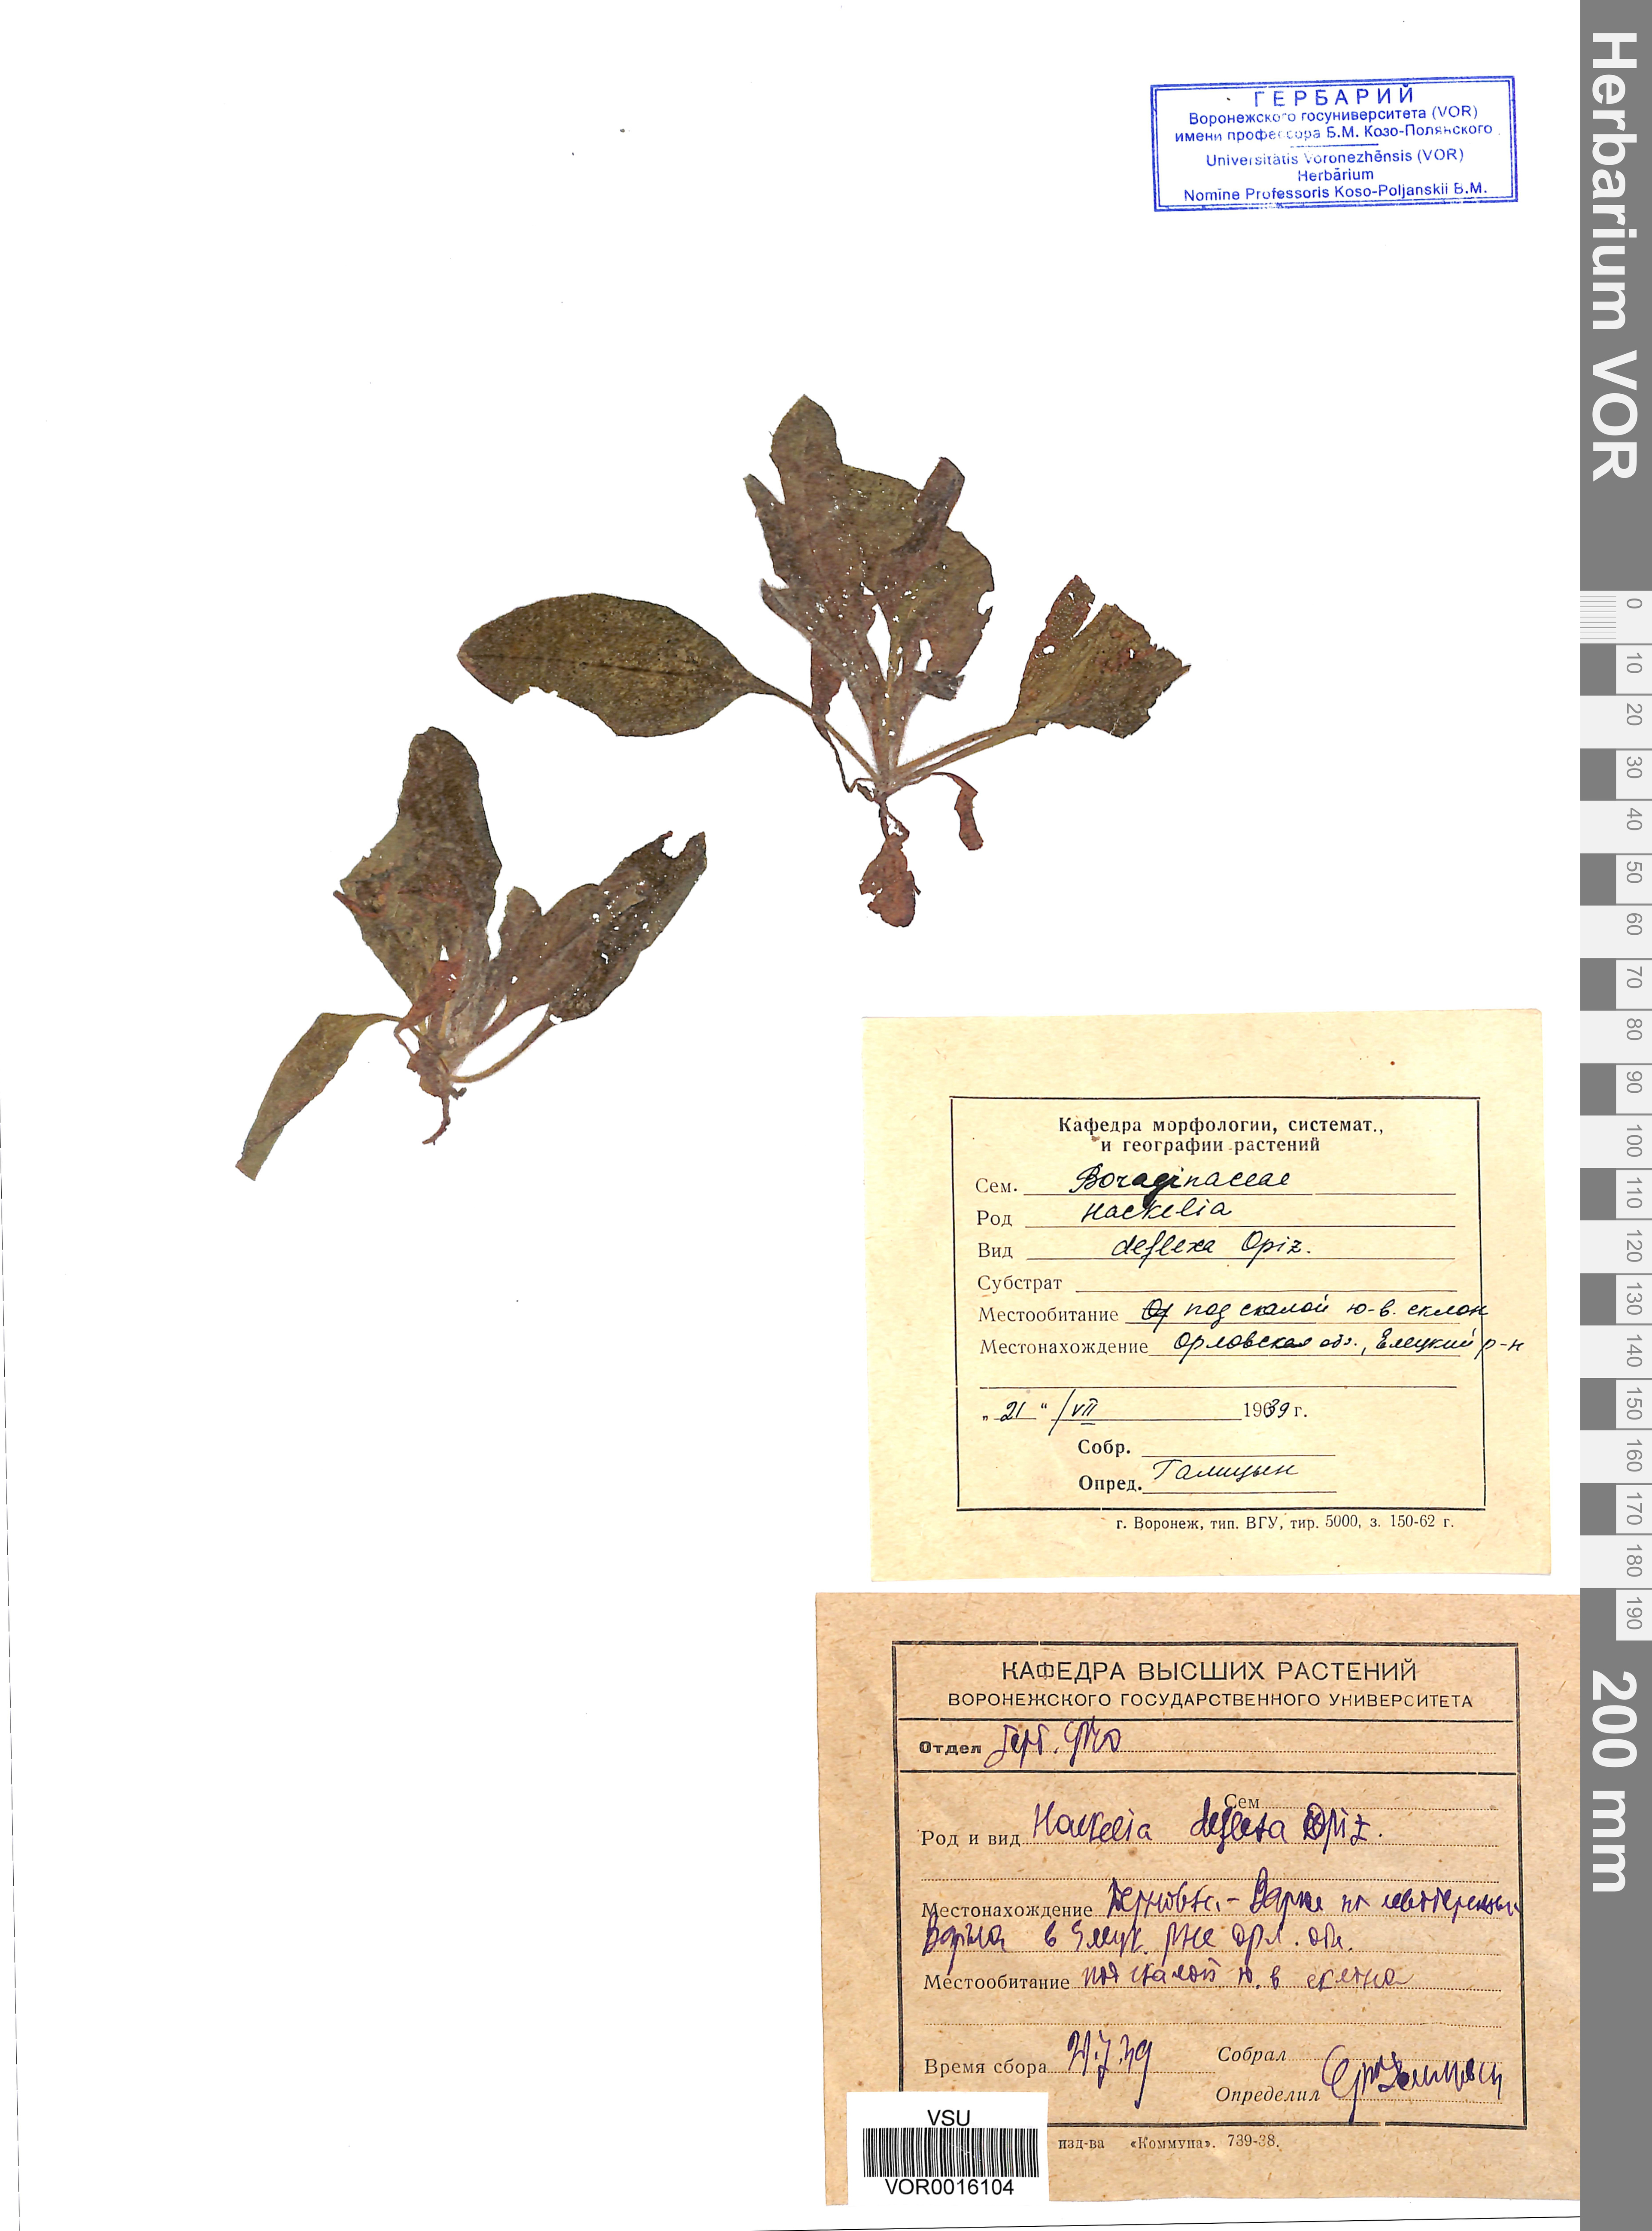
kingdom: Plantae
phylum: Tracheophyta
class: Magnoliopsida
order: Boraginales
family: Boraginaceae
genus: Hackelia
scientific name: Hackelia deflexa
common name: Nodding stickseed
